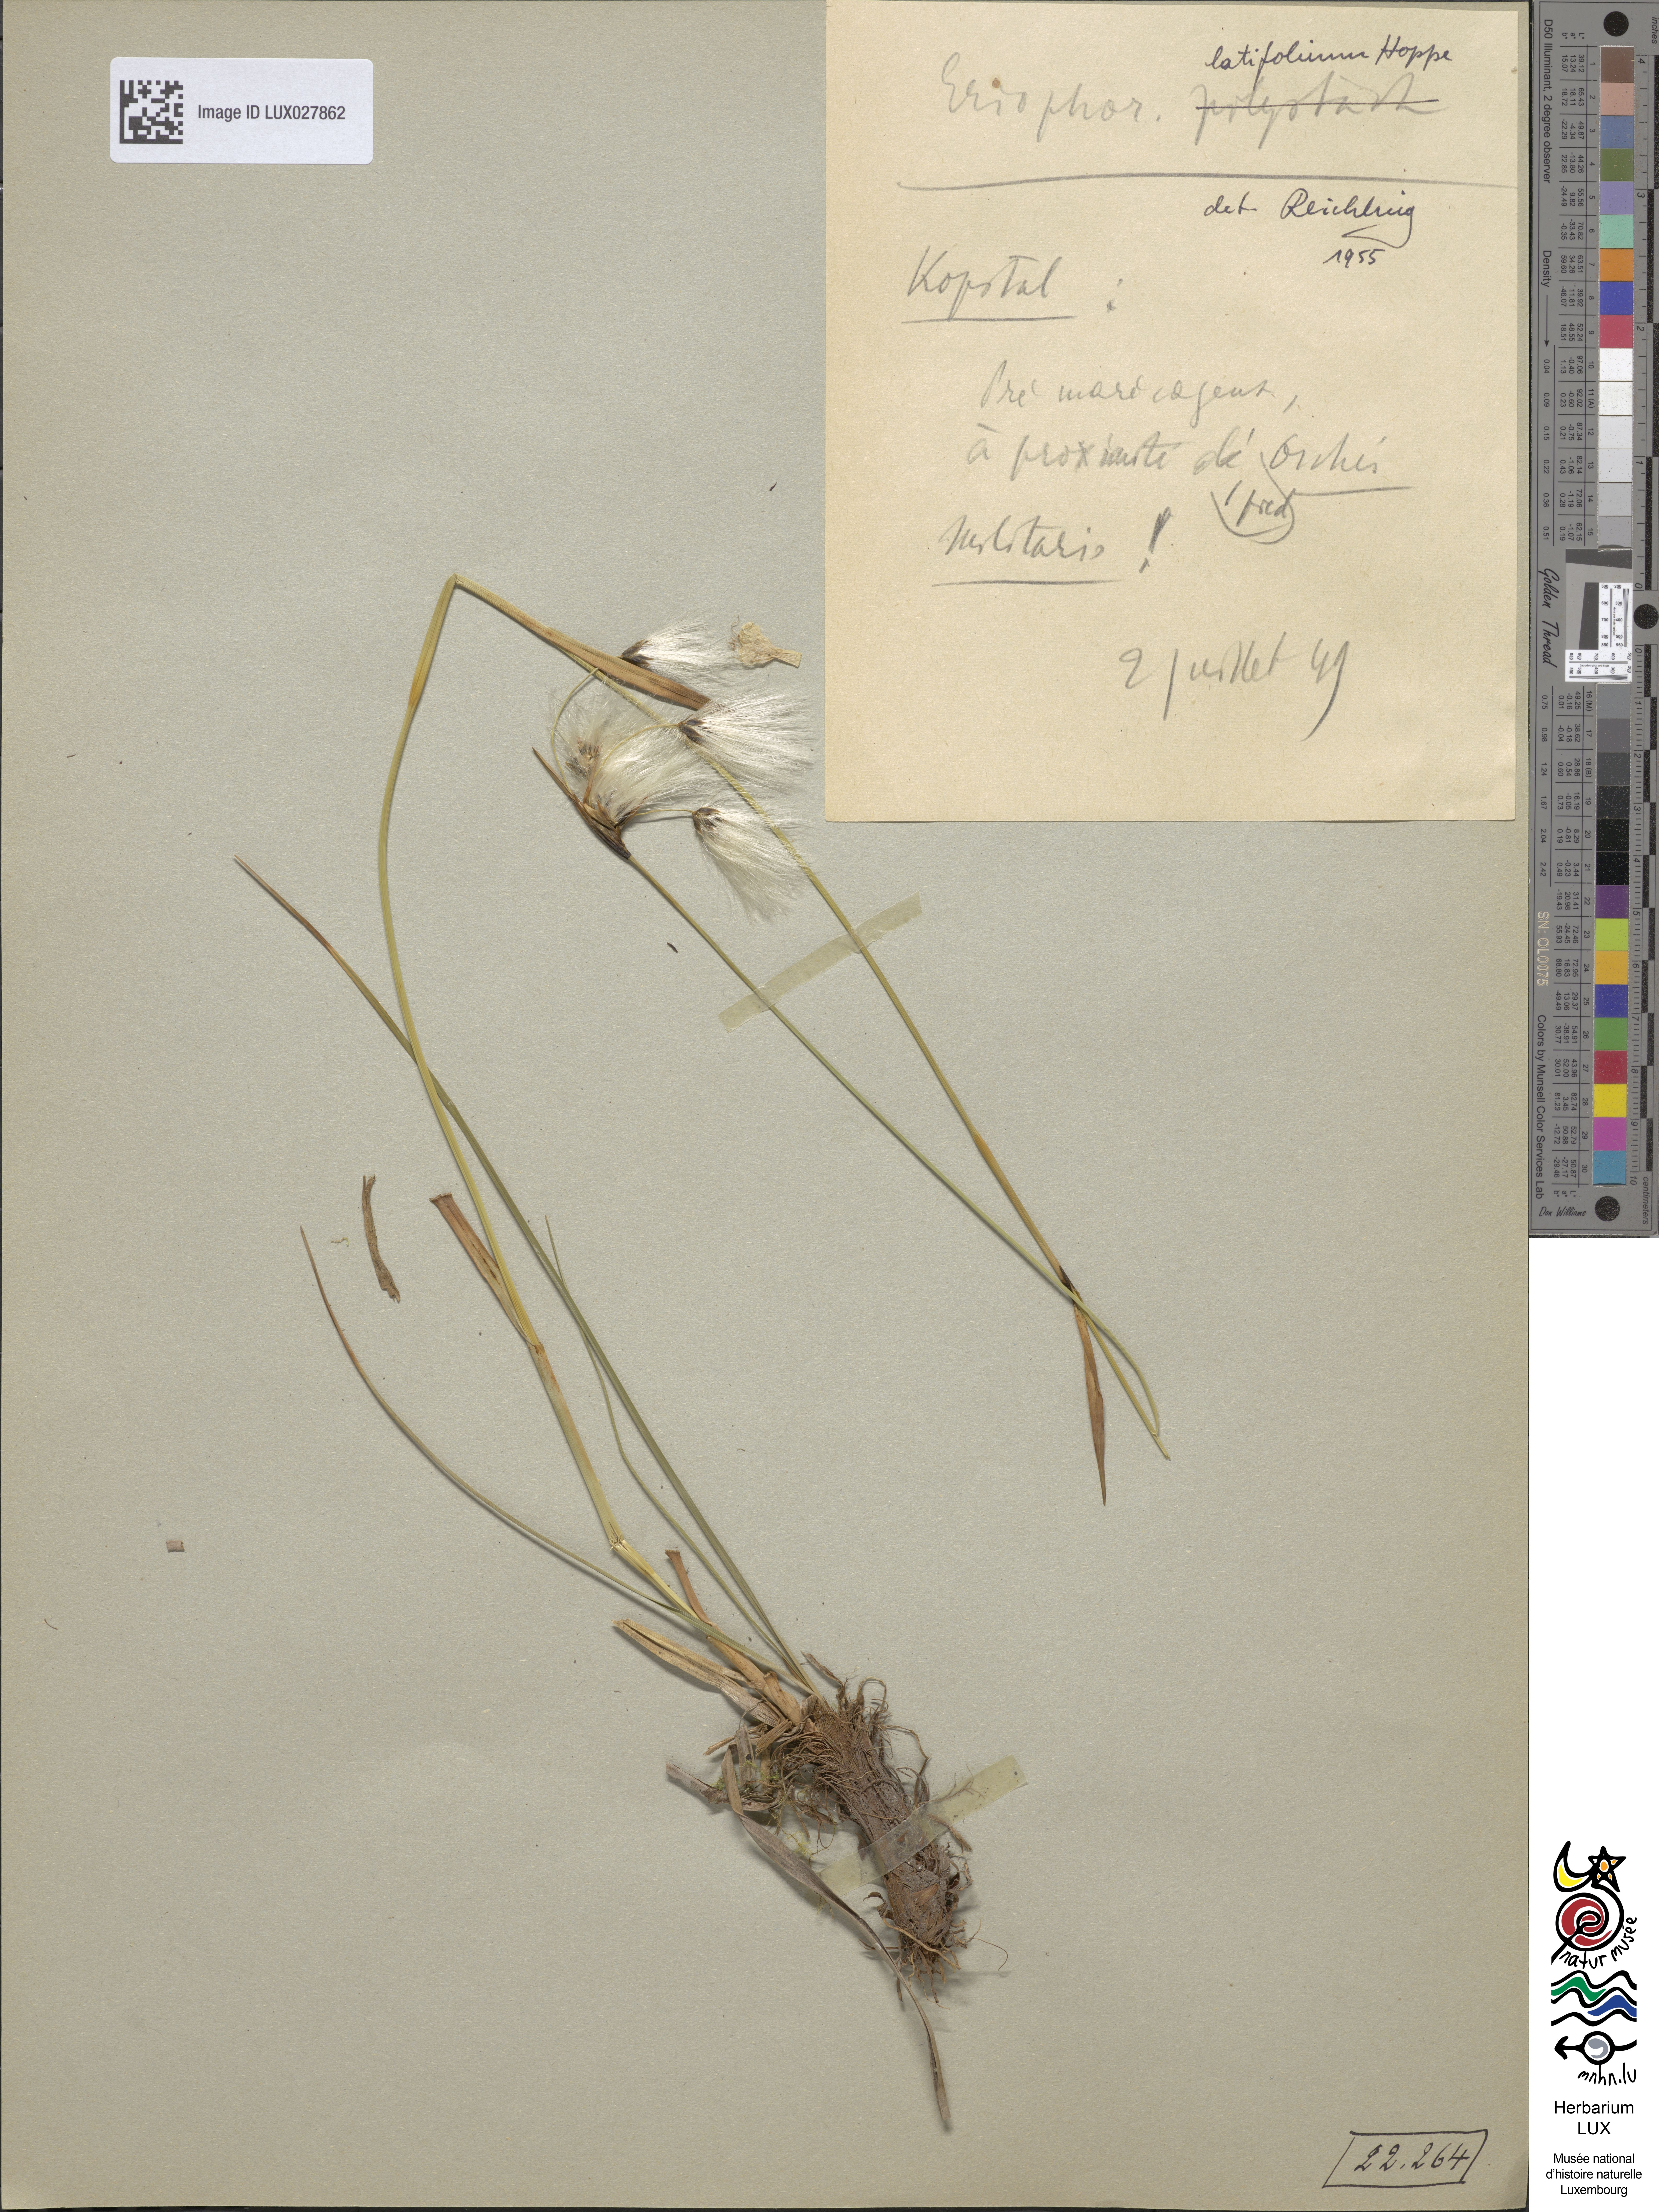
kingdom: Plantae
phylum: Tracheophyta
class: Liliopsida
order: Poales
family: Cyperaceae
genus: Eriophorum
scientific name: Eriophorum polystachion
